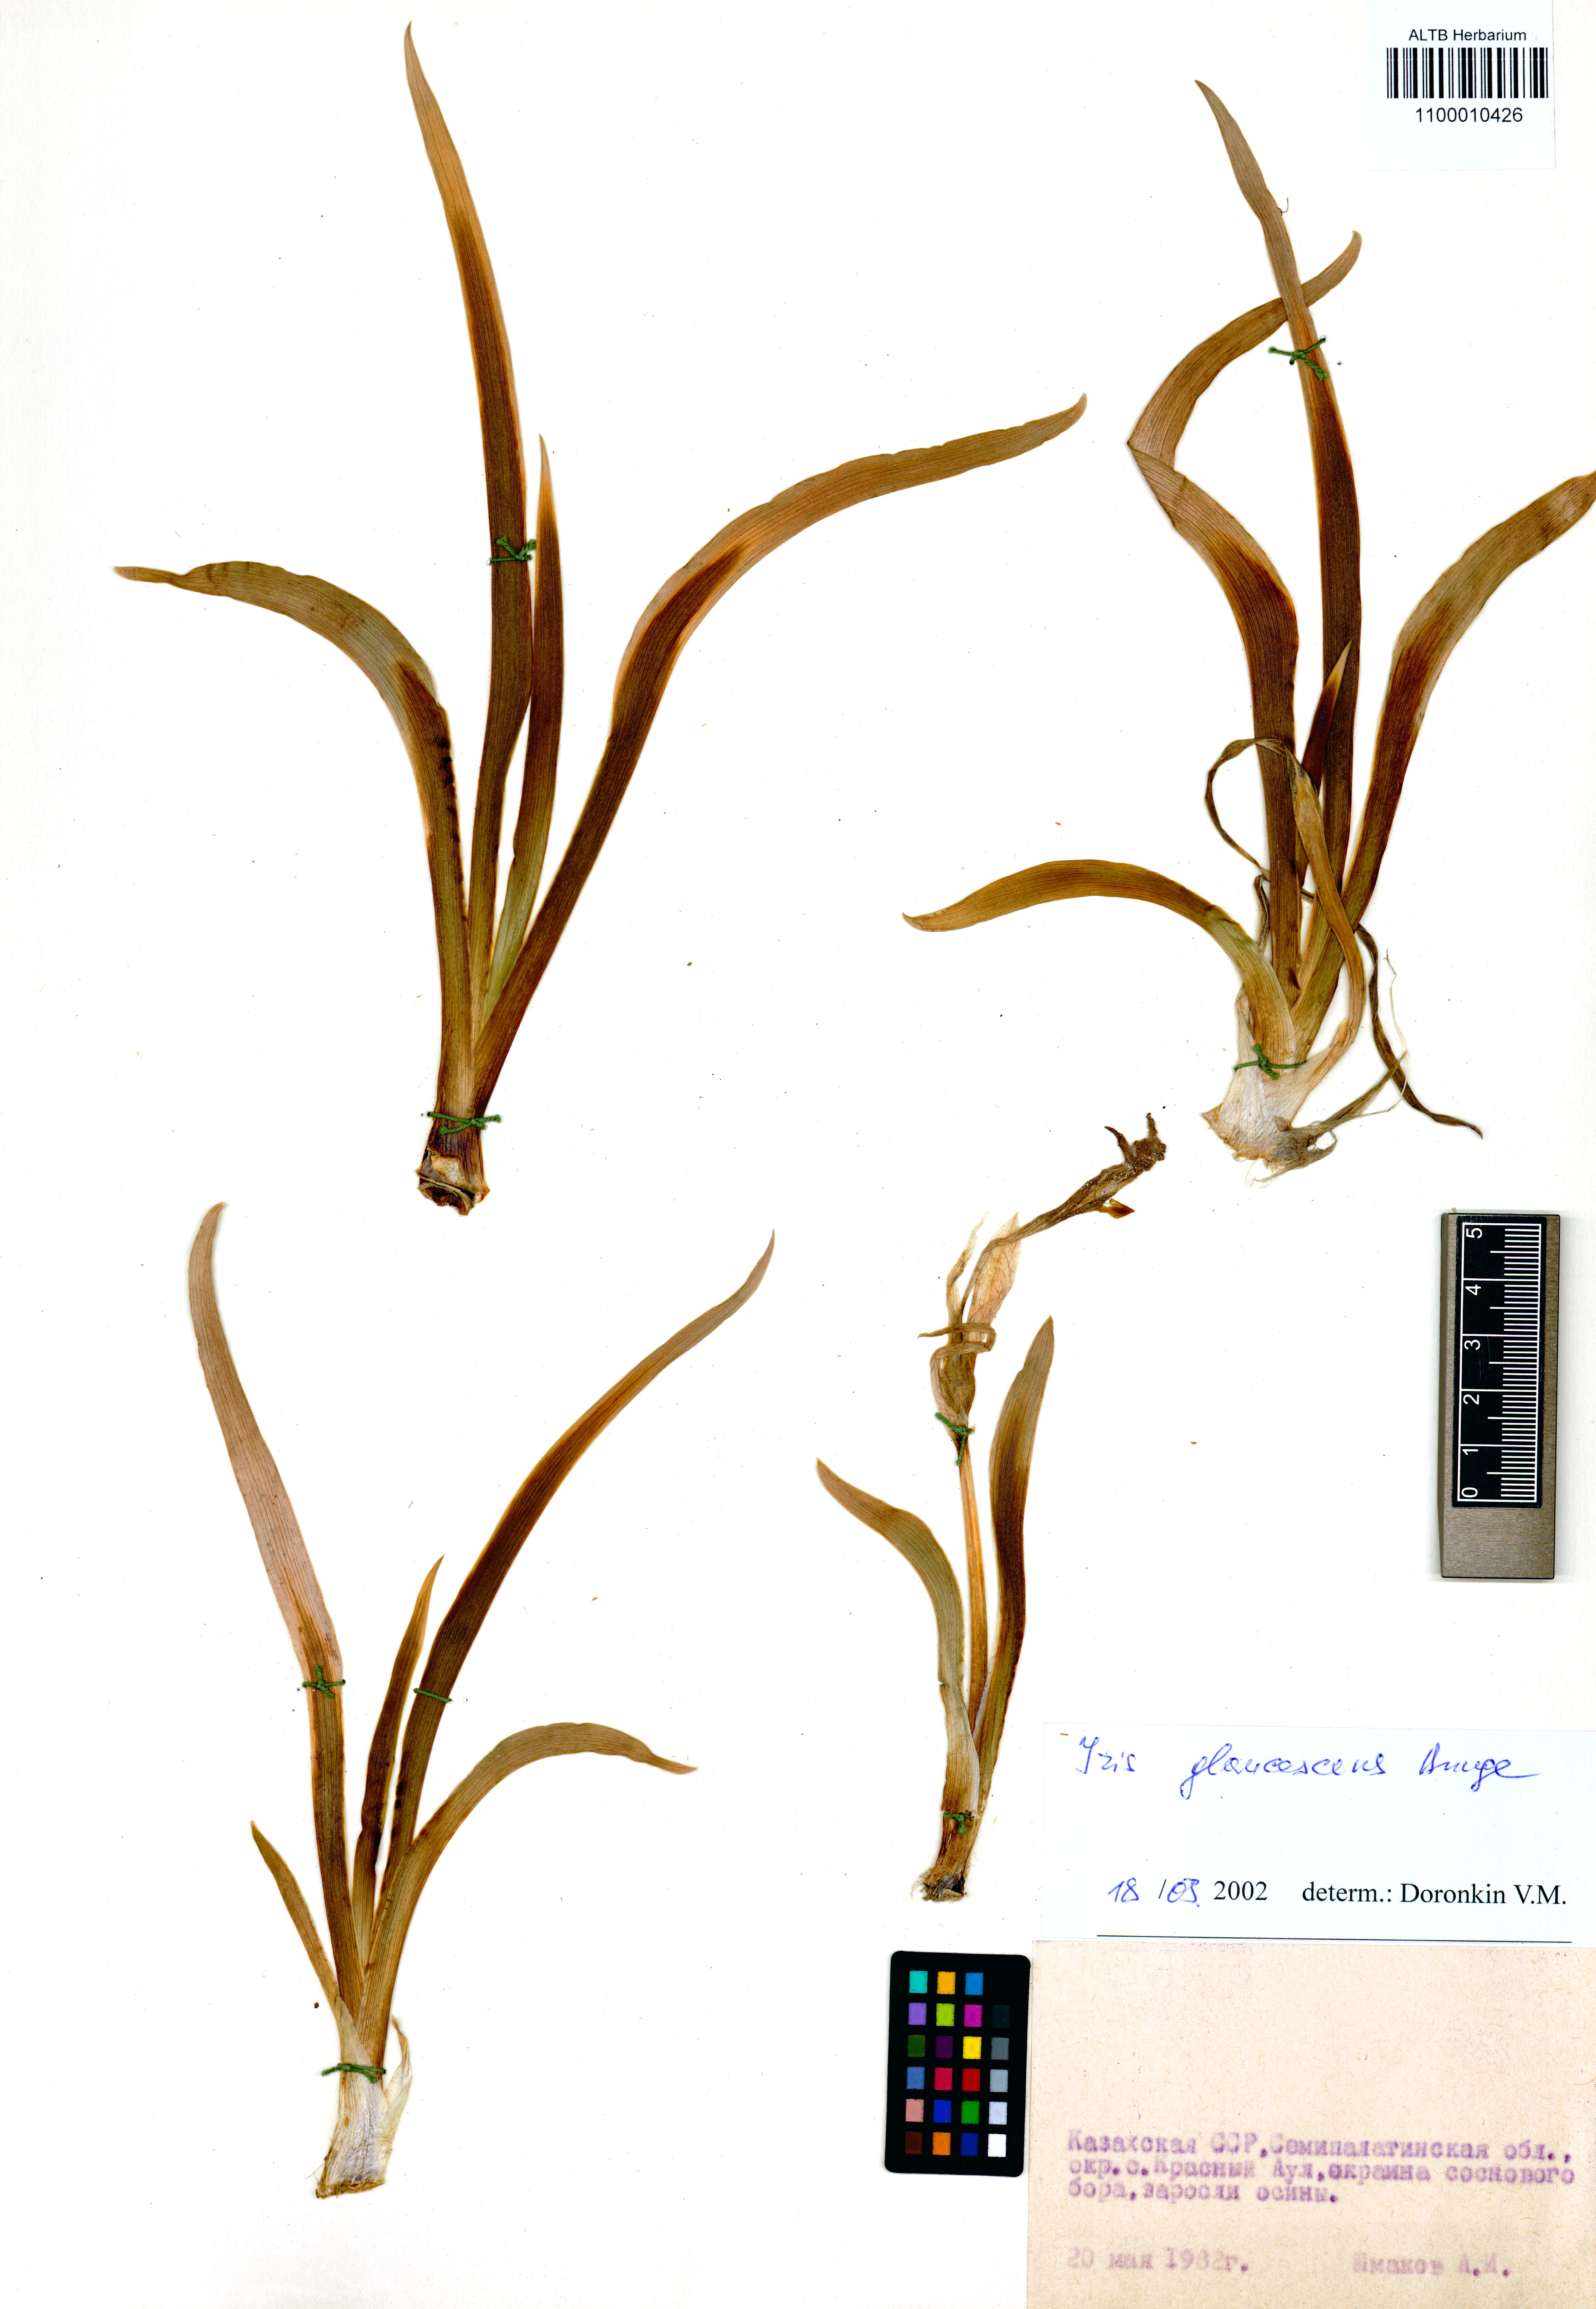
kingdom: Plantae
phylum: Tracheophyta
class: Liliopsida
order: Asparagales
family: Iridaceae
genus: Iris
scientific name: Iris glaucescens
